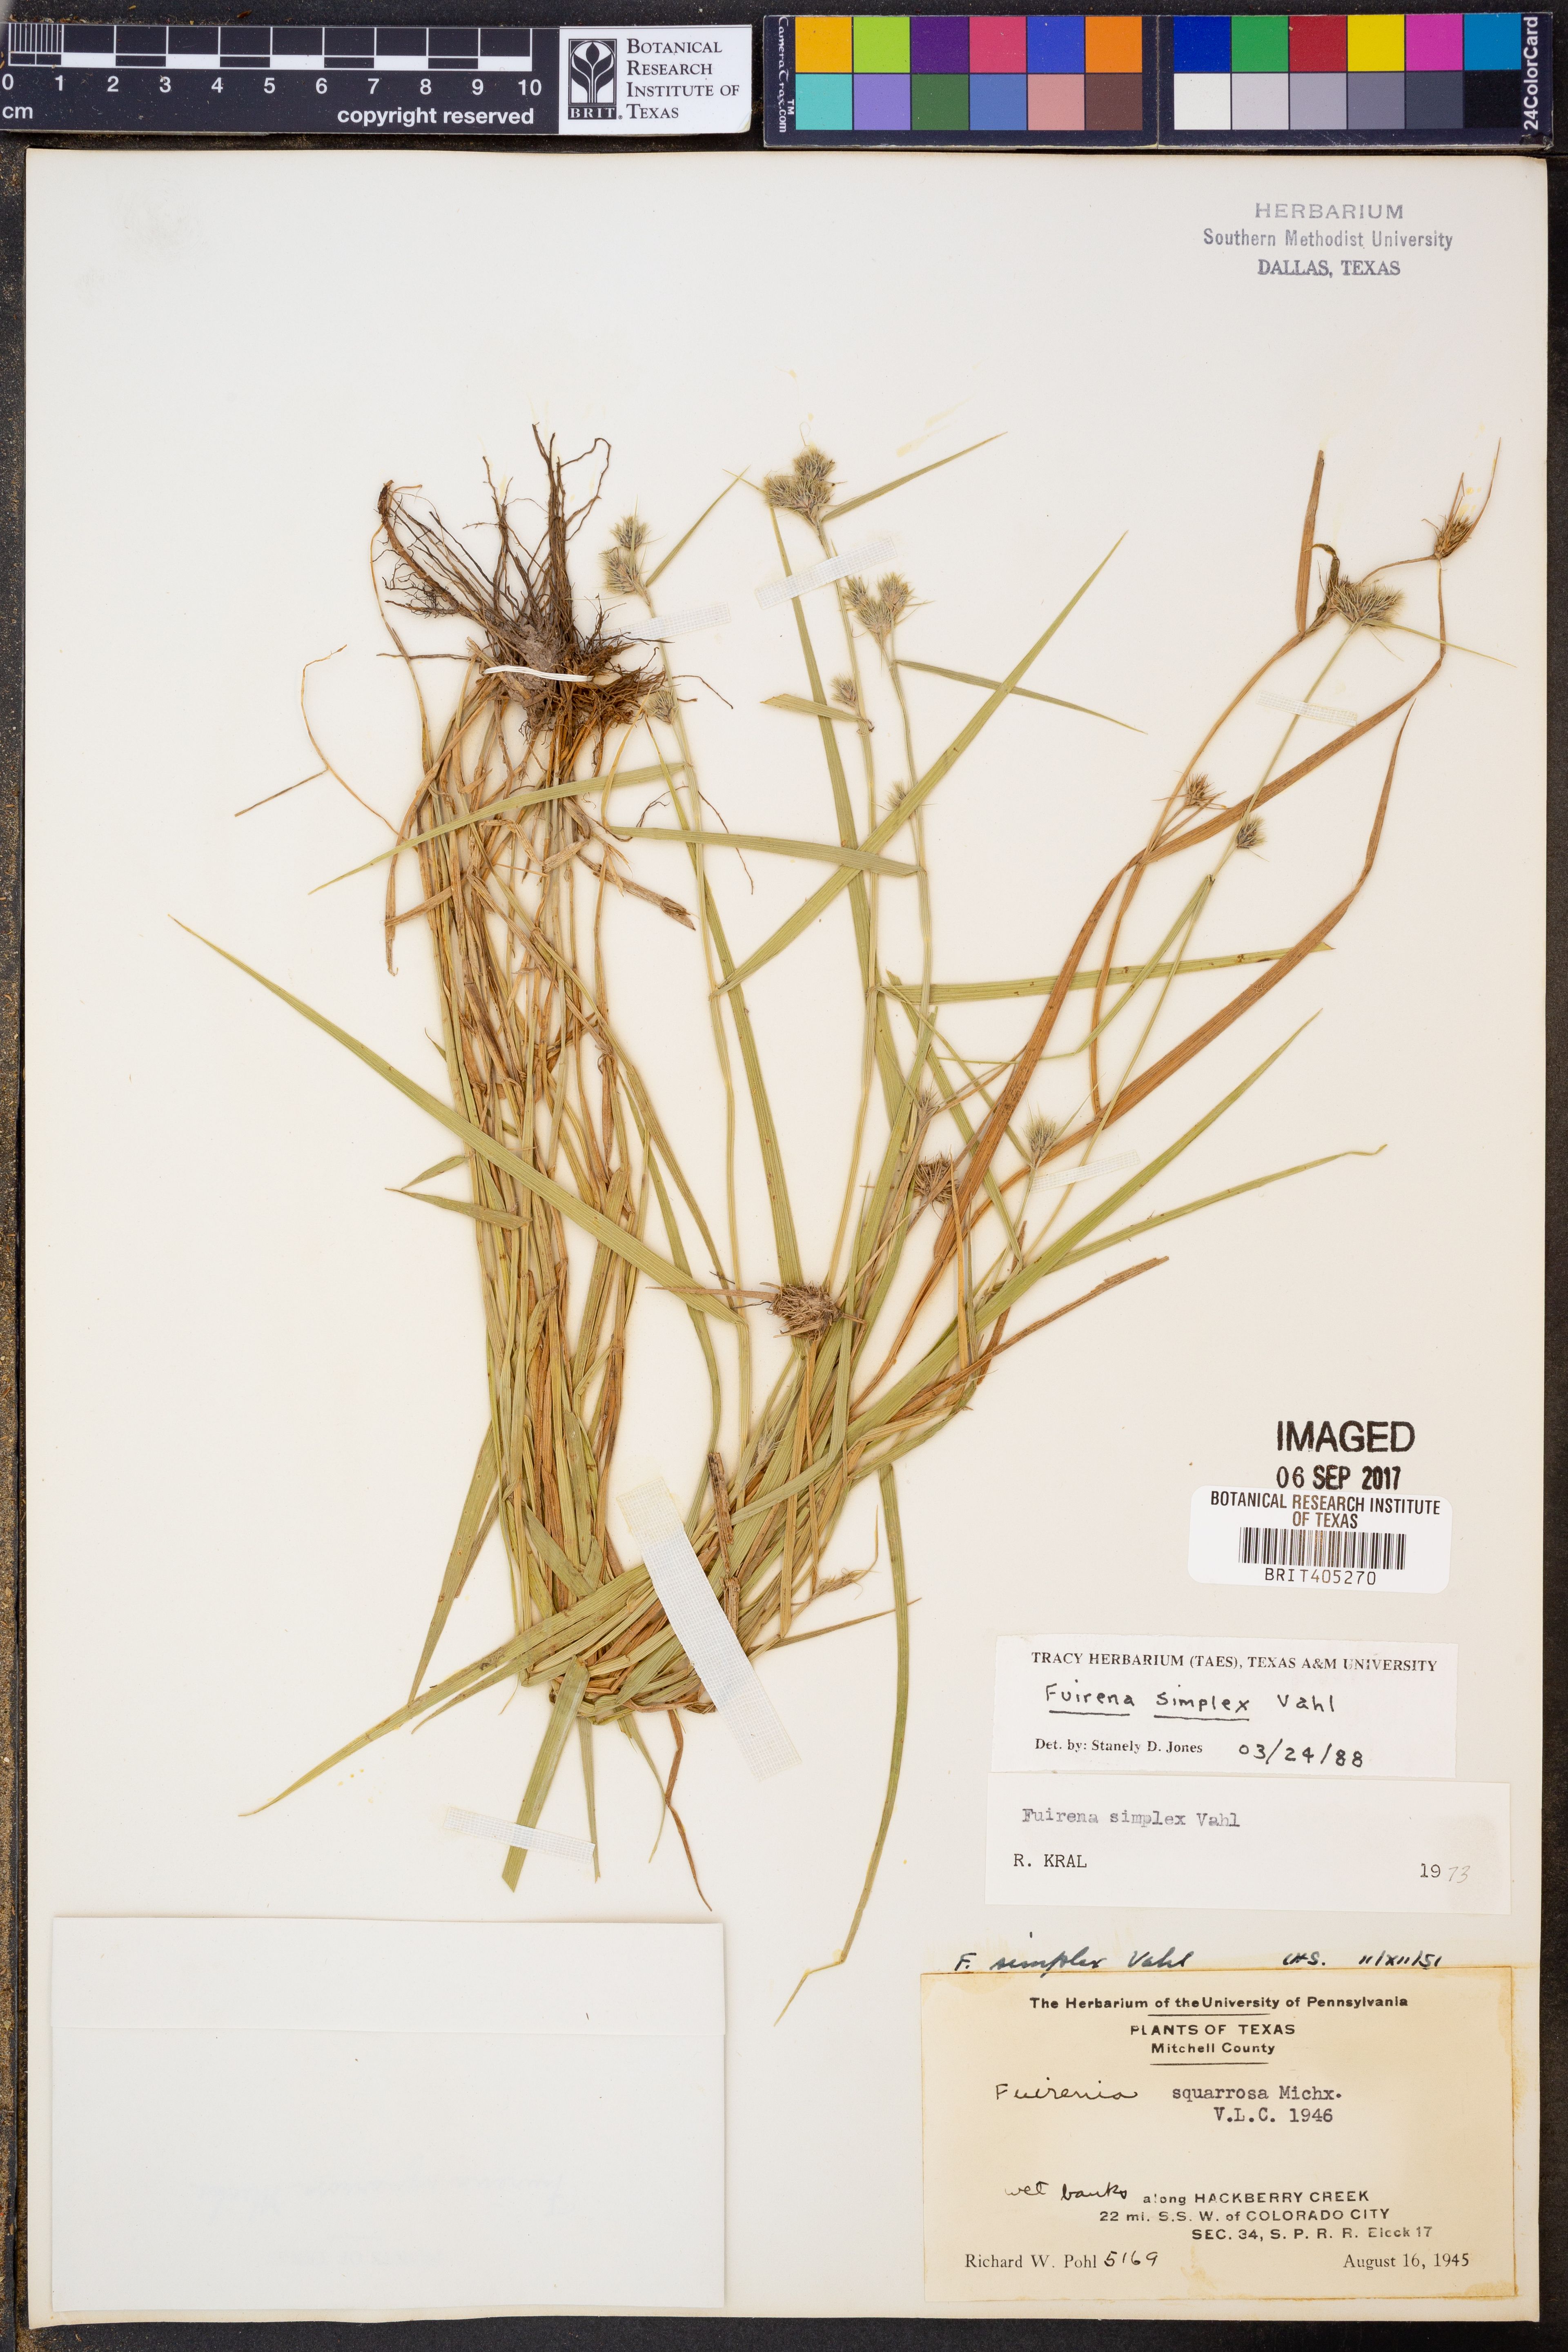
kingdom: Plantae
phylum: Tracheophyta
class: Liliopsida
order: Poales
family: Cyperaceae
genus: Fuirena
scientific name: Fuirena simplex
